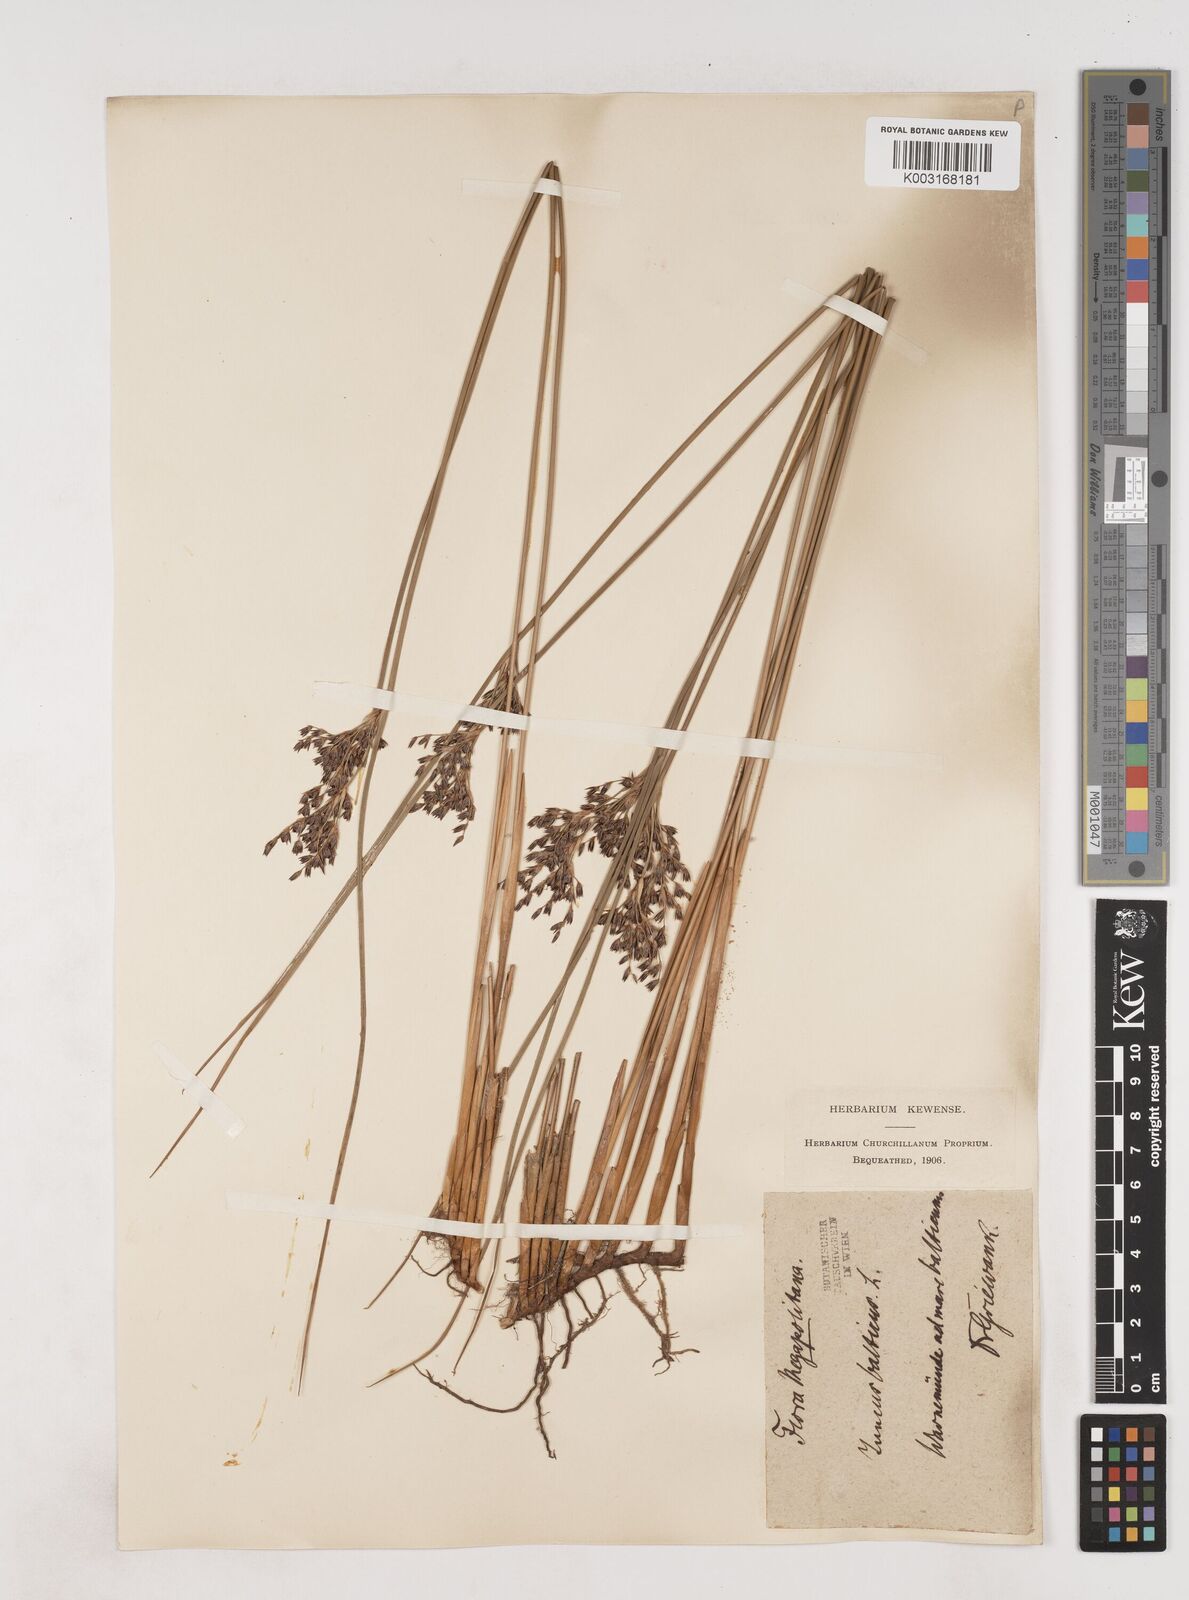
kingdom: Plantae
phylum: Tracheophyta
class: Liliopsida
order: Poales
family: Juncaceae
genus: Juncus
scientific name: Juncus balticus
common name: Baltic rush
